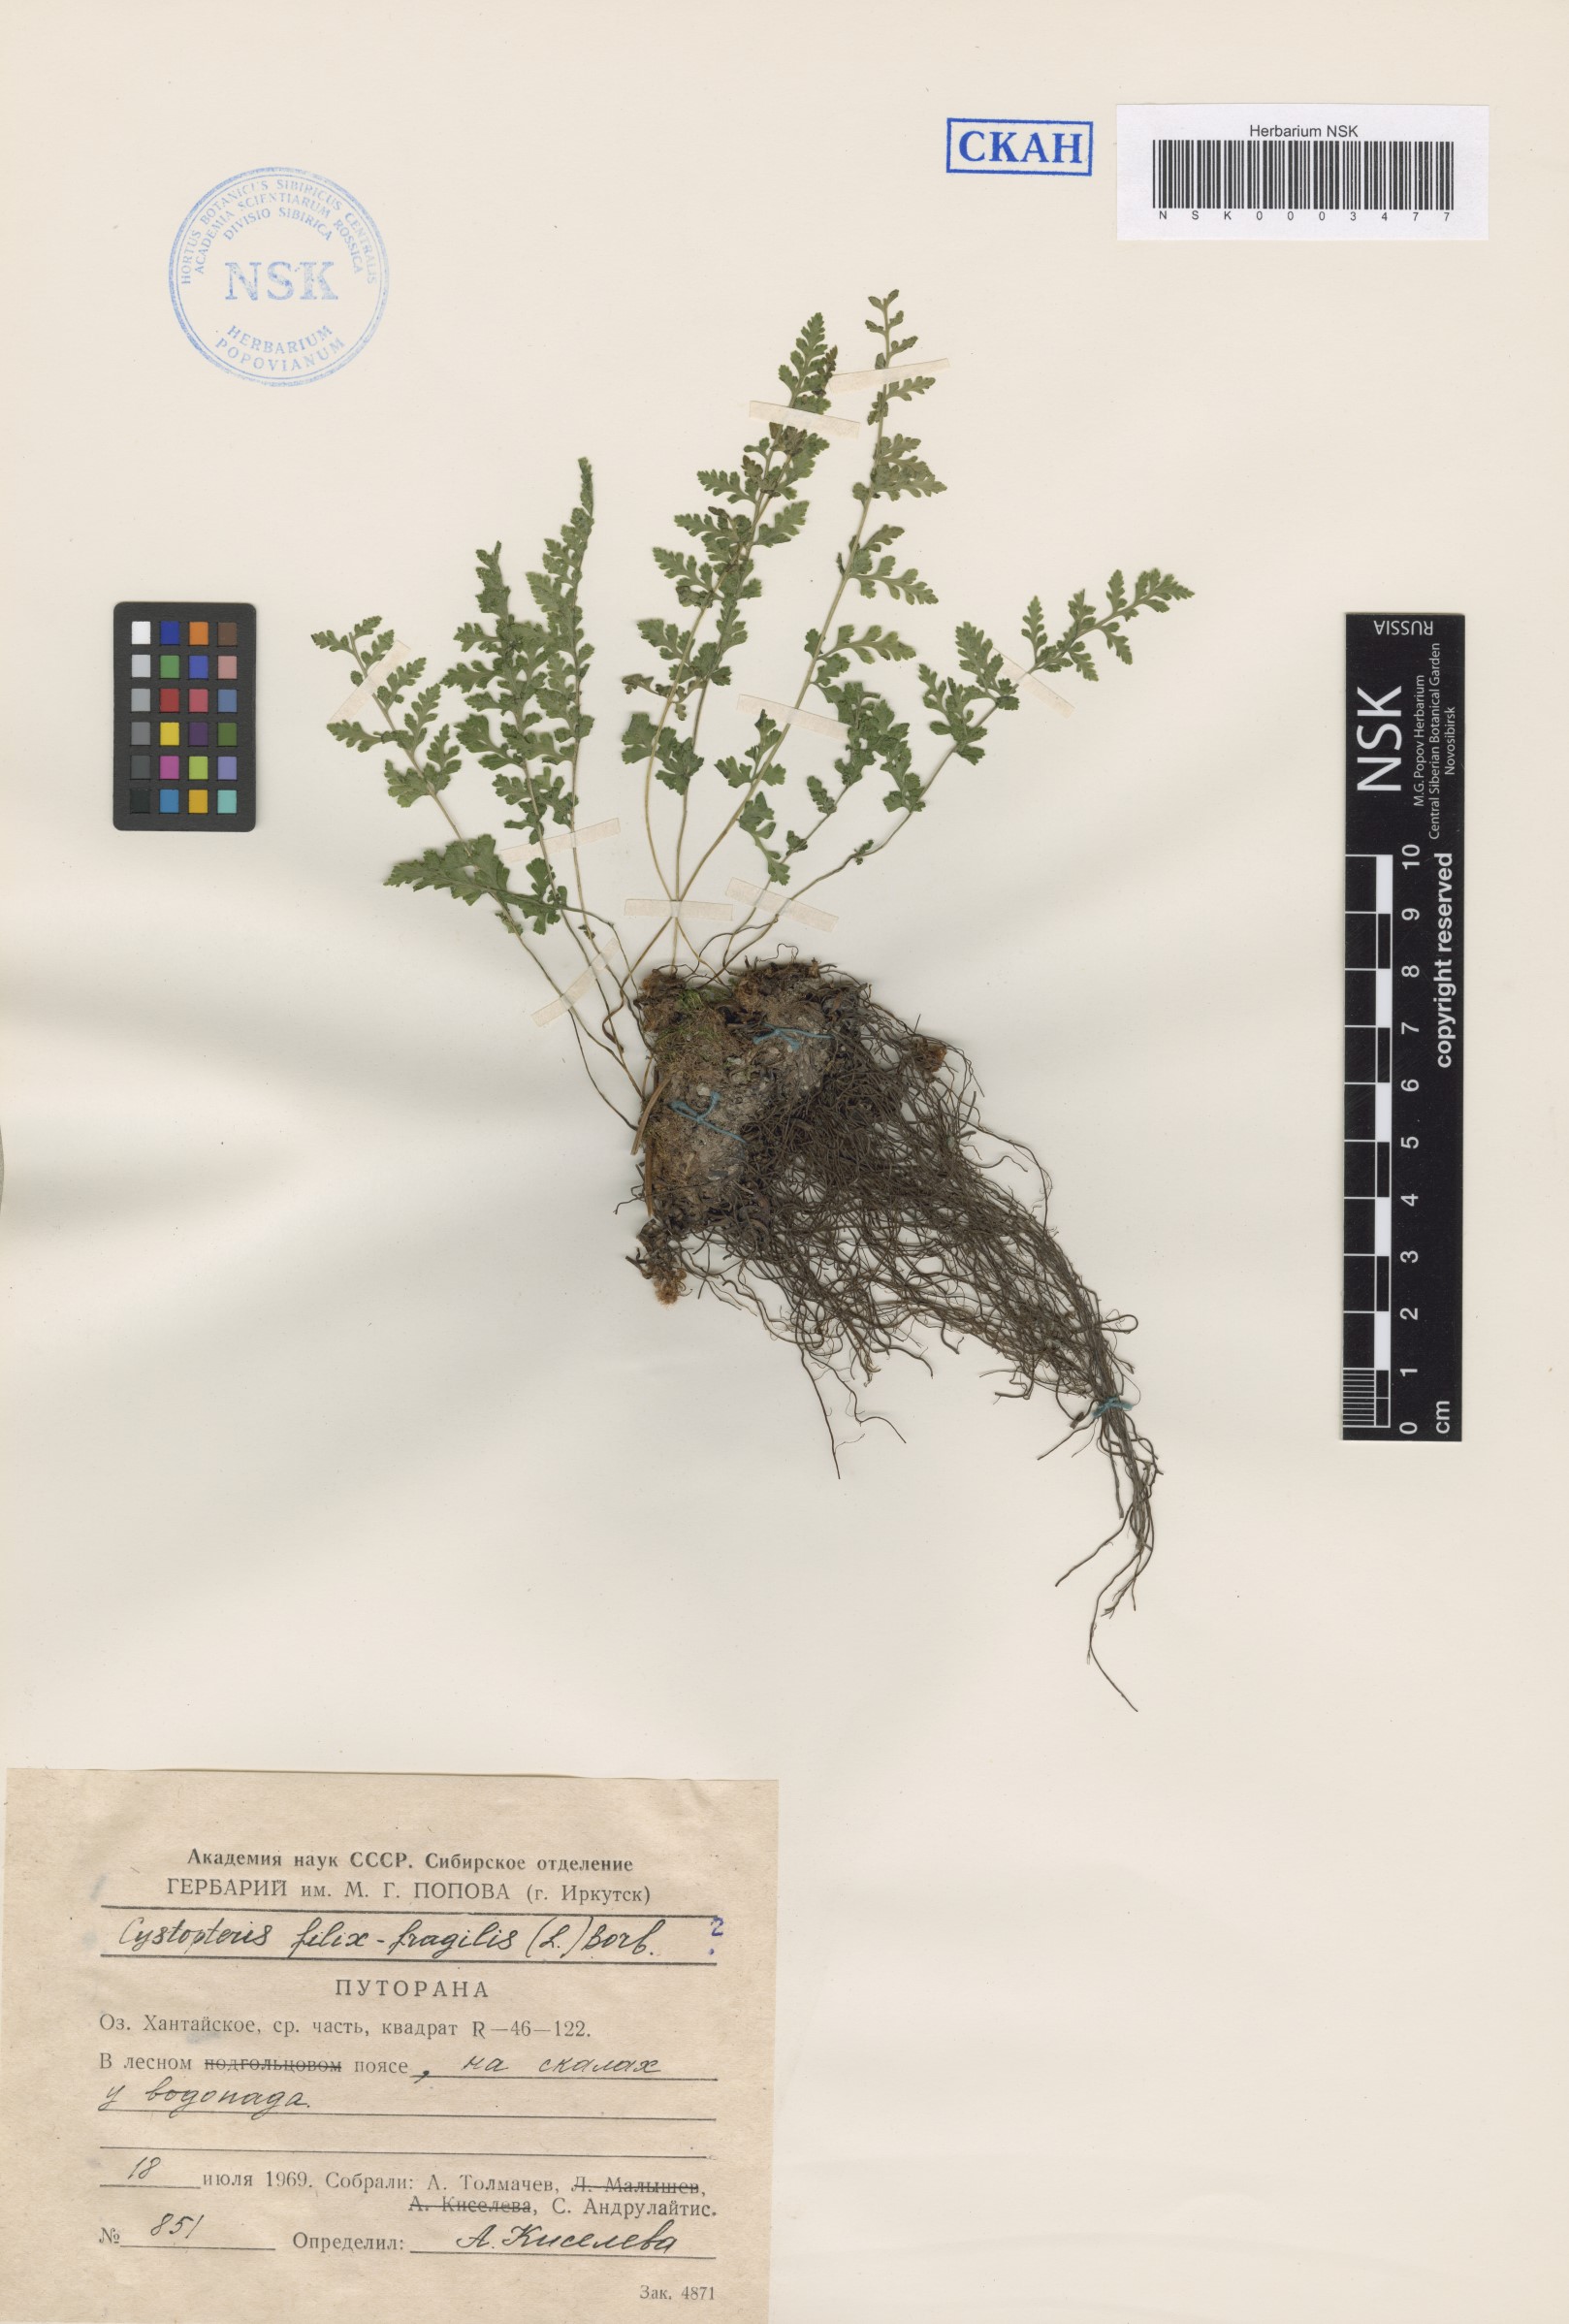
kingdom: Plantae
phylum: Tracheophyta
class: Polypodiopsida
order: Polypodiales
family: Cystopteridaceae
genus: Cystopteris
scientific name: Cystopteris dickieana
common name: Dickie's bladder-fern
